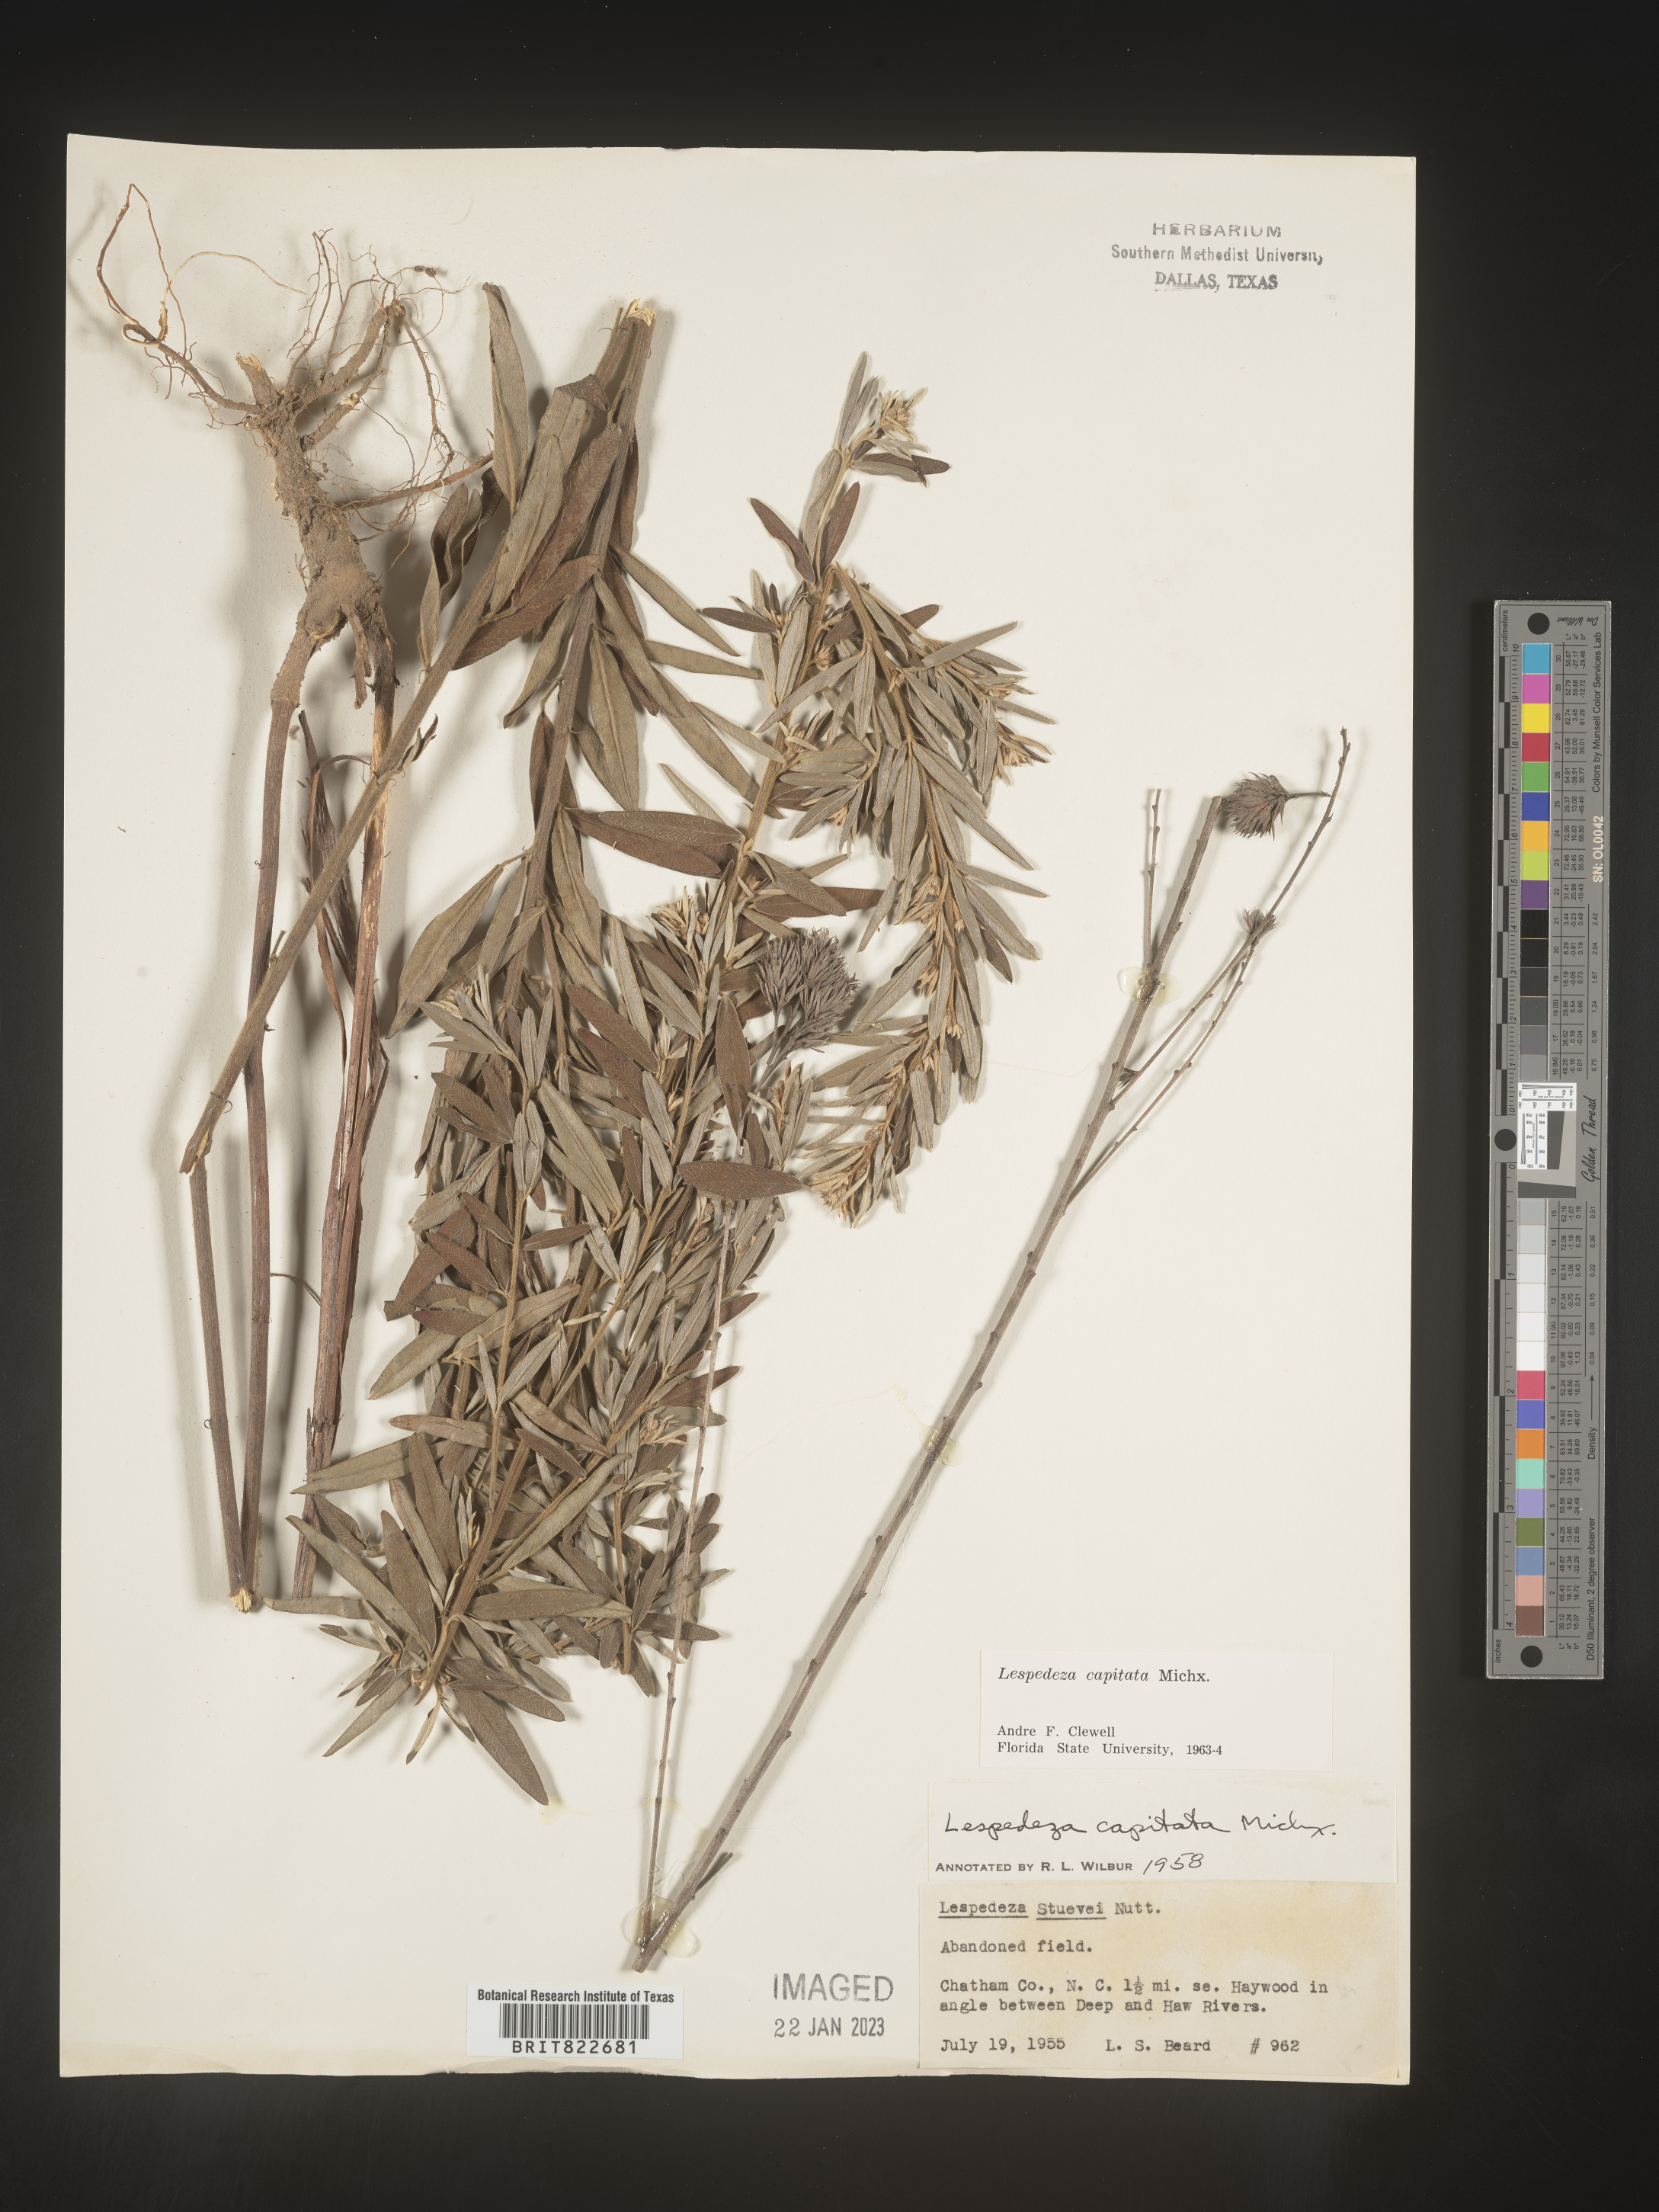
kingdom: Plantae
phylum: Tracheophyta
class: Magnoliopsida
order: Fabales
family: Fabaceae
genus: Lespedeza
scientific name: Lespedeza capitata
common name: Dusty clover
